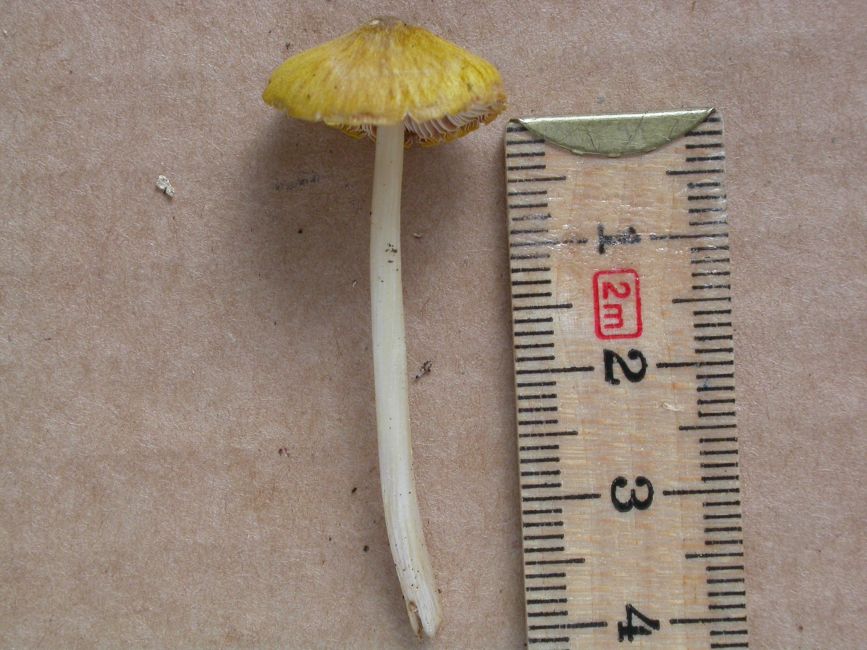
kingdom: Fungi
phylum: Basidiomycota
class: Agaricomycetes
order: Agaricales
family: Pluteaceae
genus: Pluteus
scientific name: Pluteus leoninus
